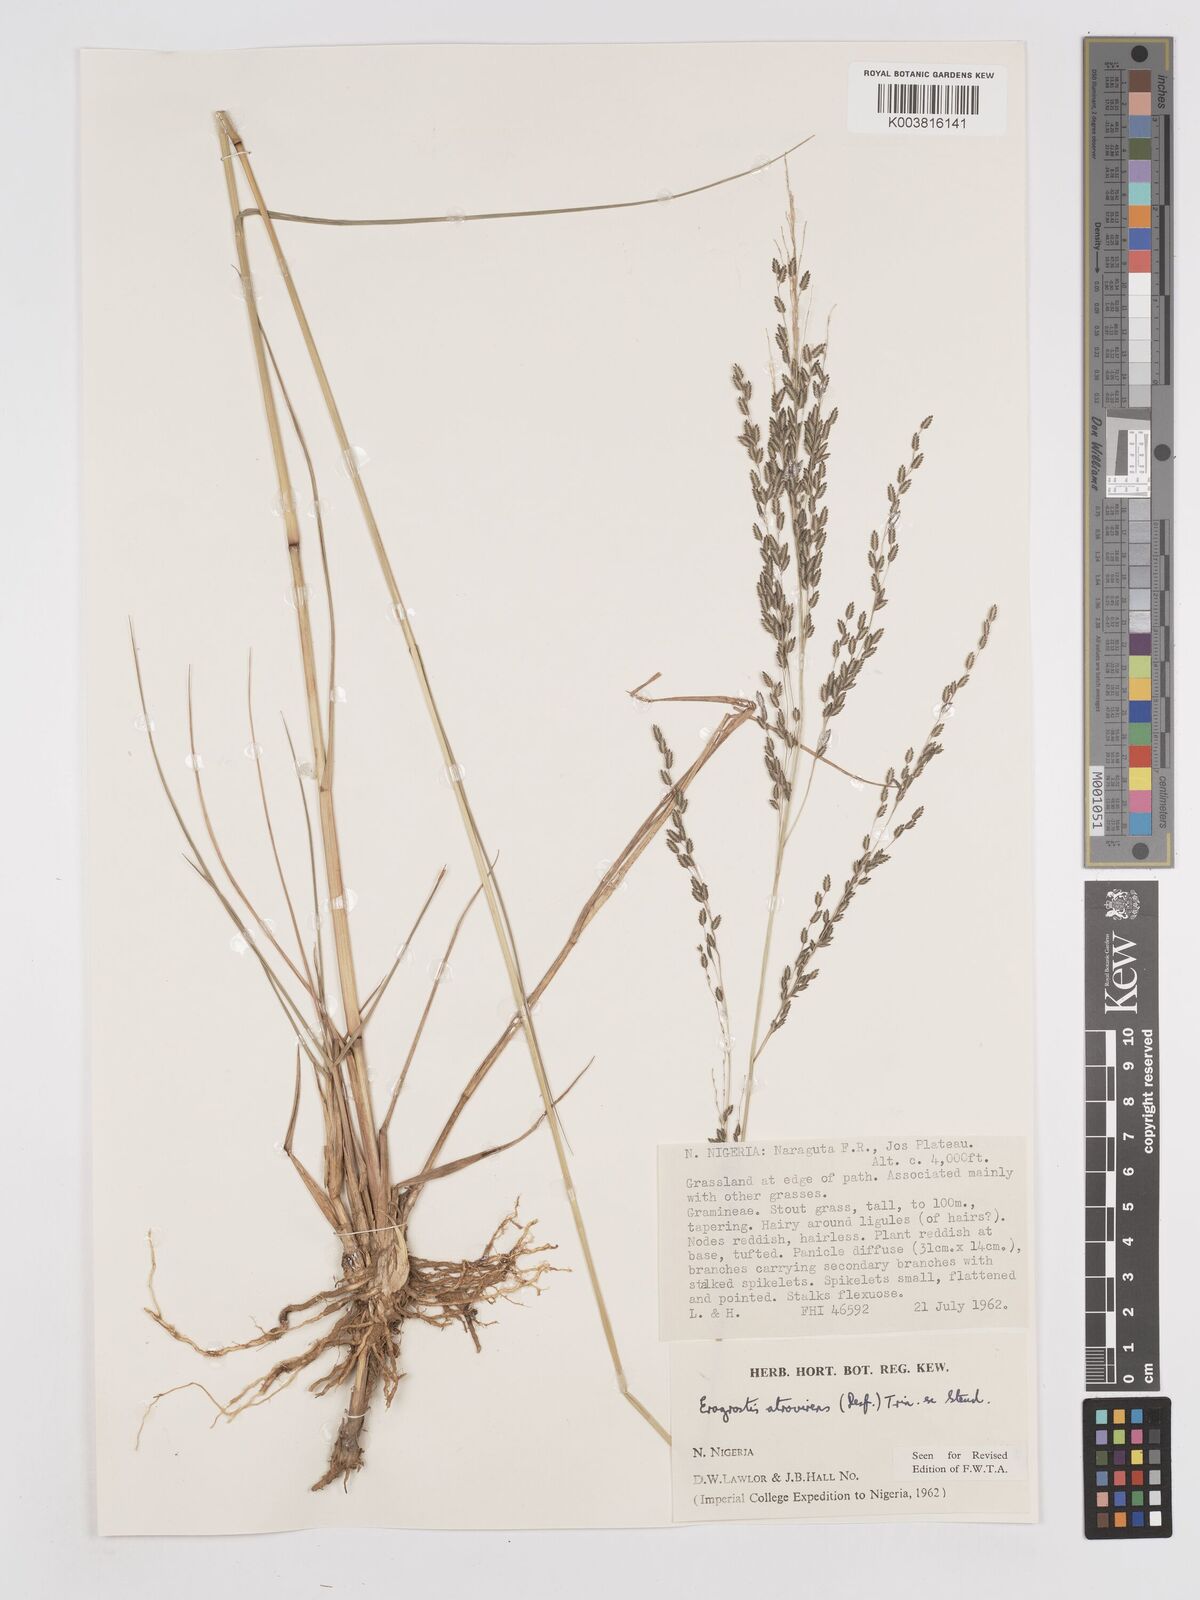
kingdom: Plantae
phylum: Tracheophyta
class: Liliopsida
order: Poales
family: Poaceae
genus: Eragrostis
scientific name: Eragrostis atrovirens
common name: Thalia lovegrass
